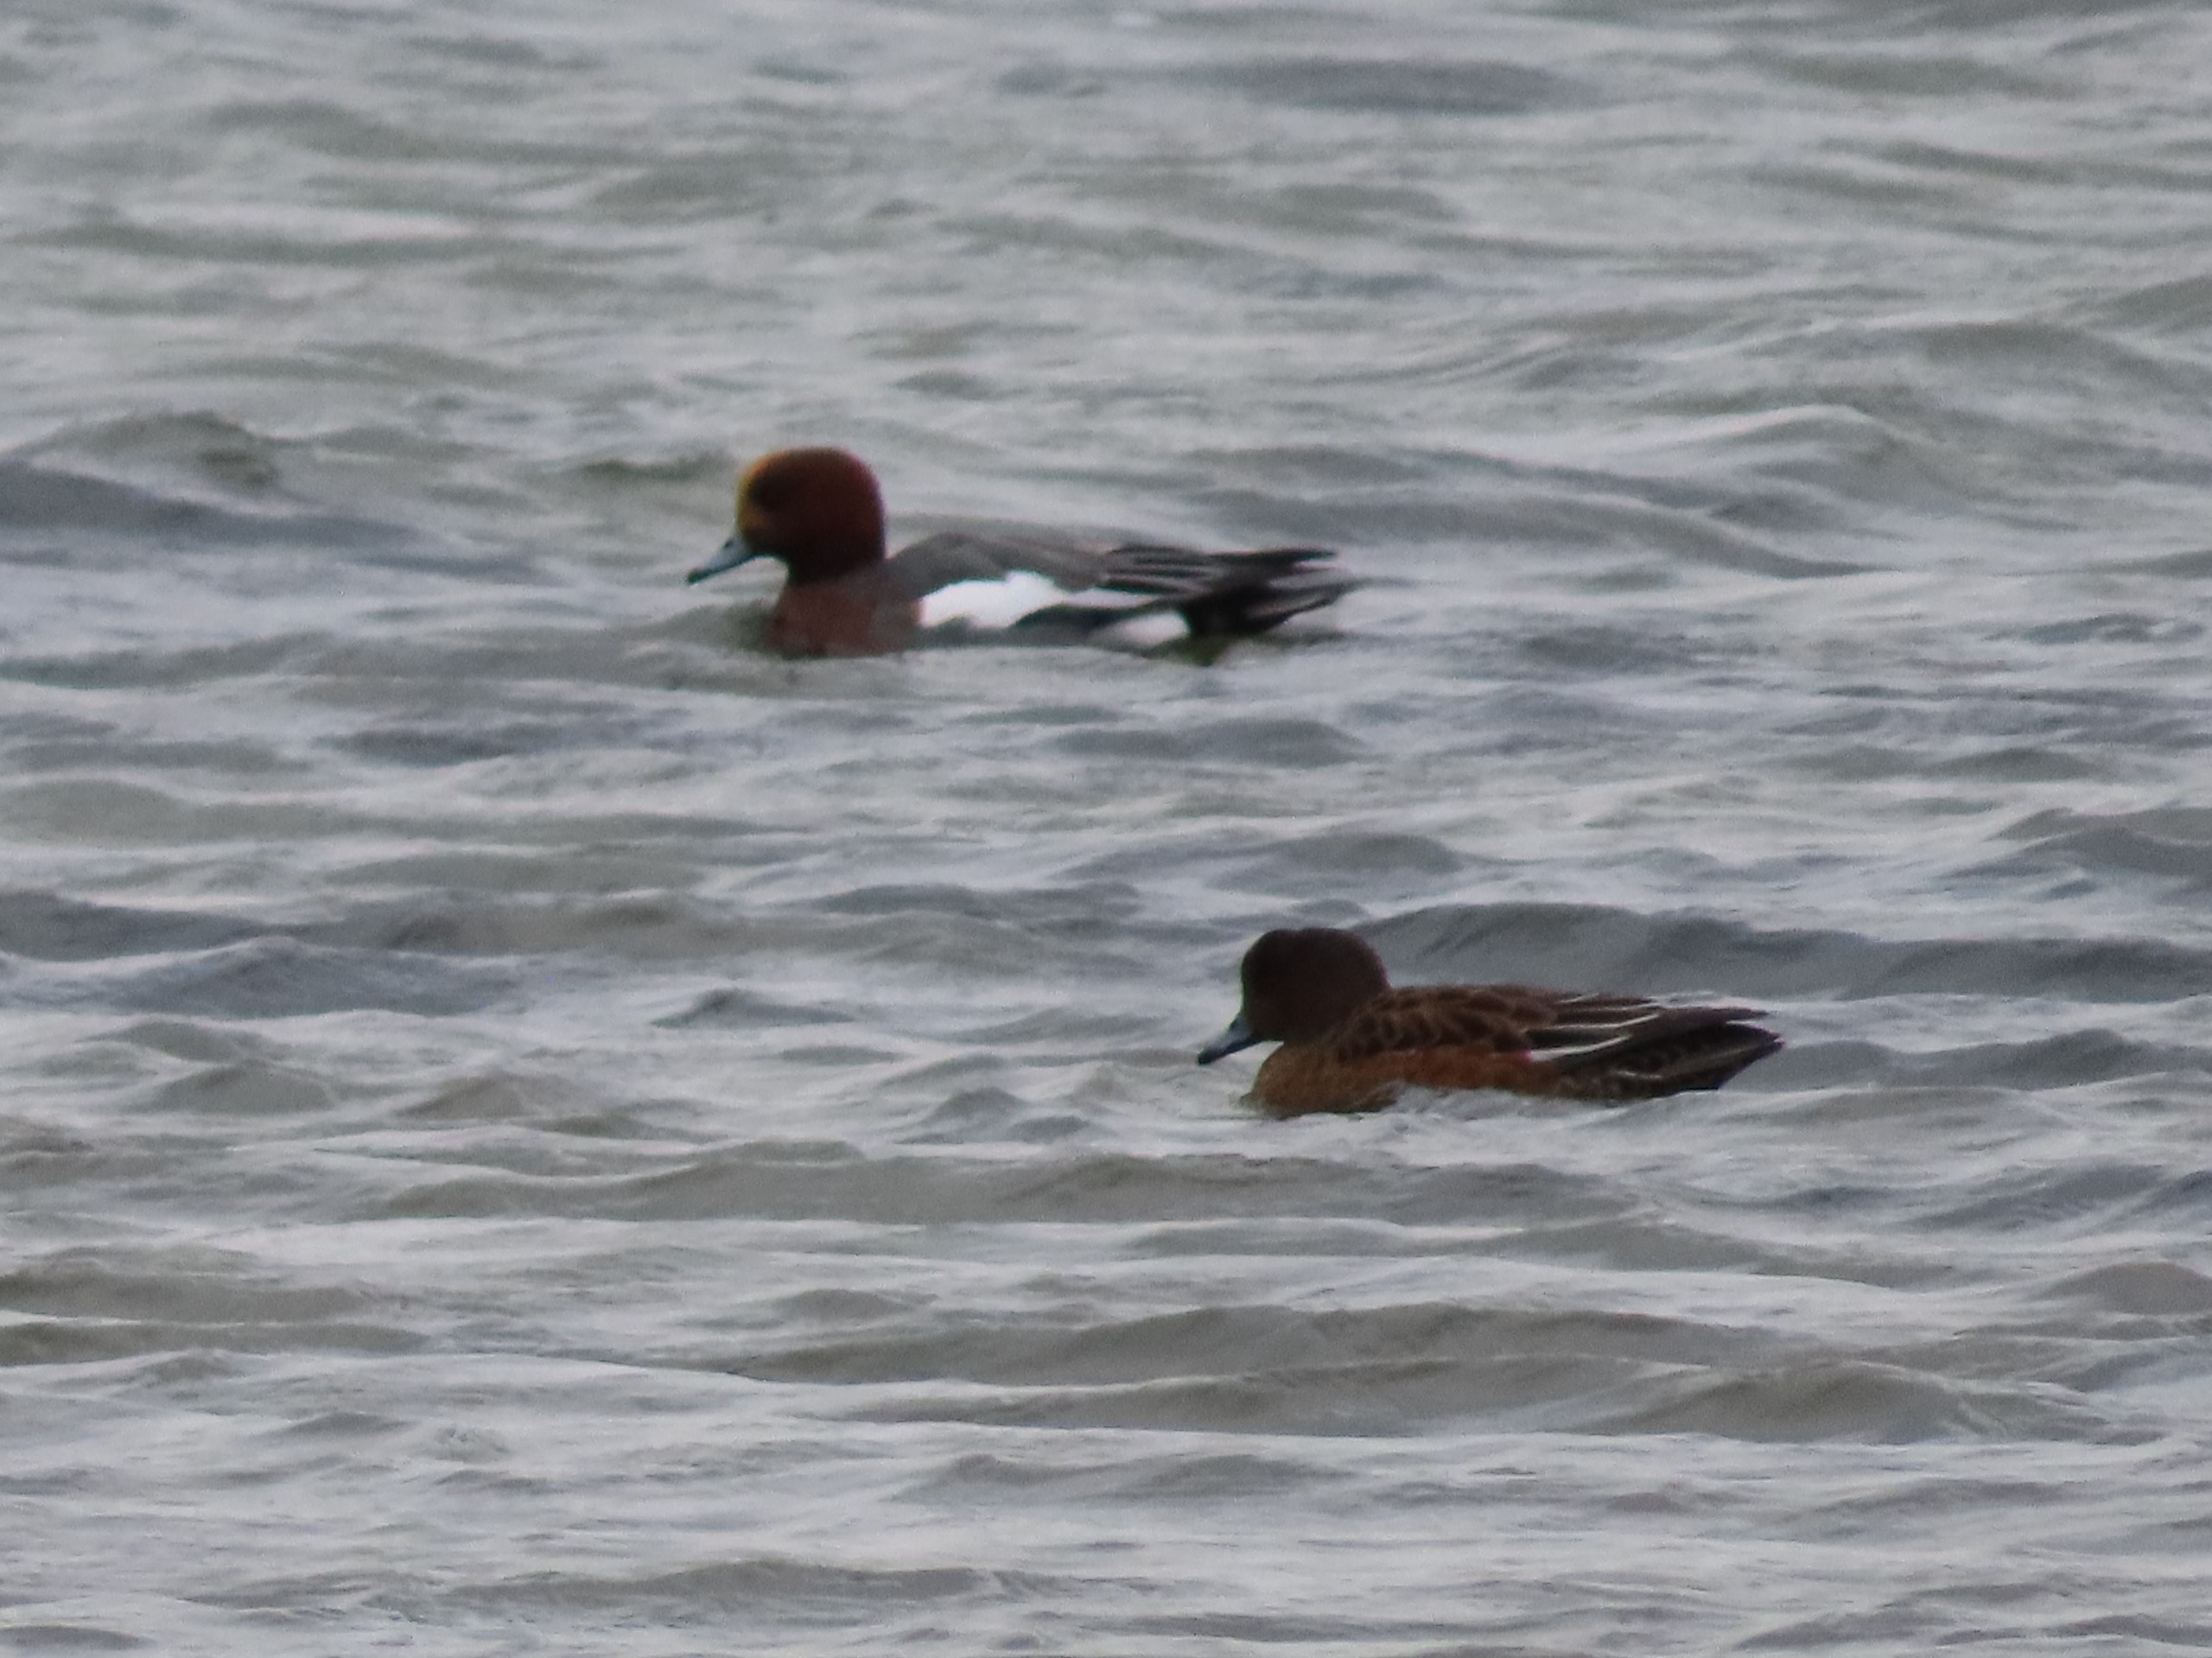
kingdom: Animalia
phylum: Chordata
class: Aves
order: Anseriformes
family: Anatidae
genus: Mareca
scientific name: Mareca penelope
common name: Pibeand
